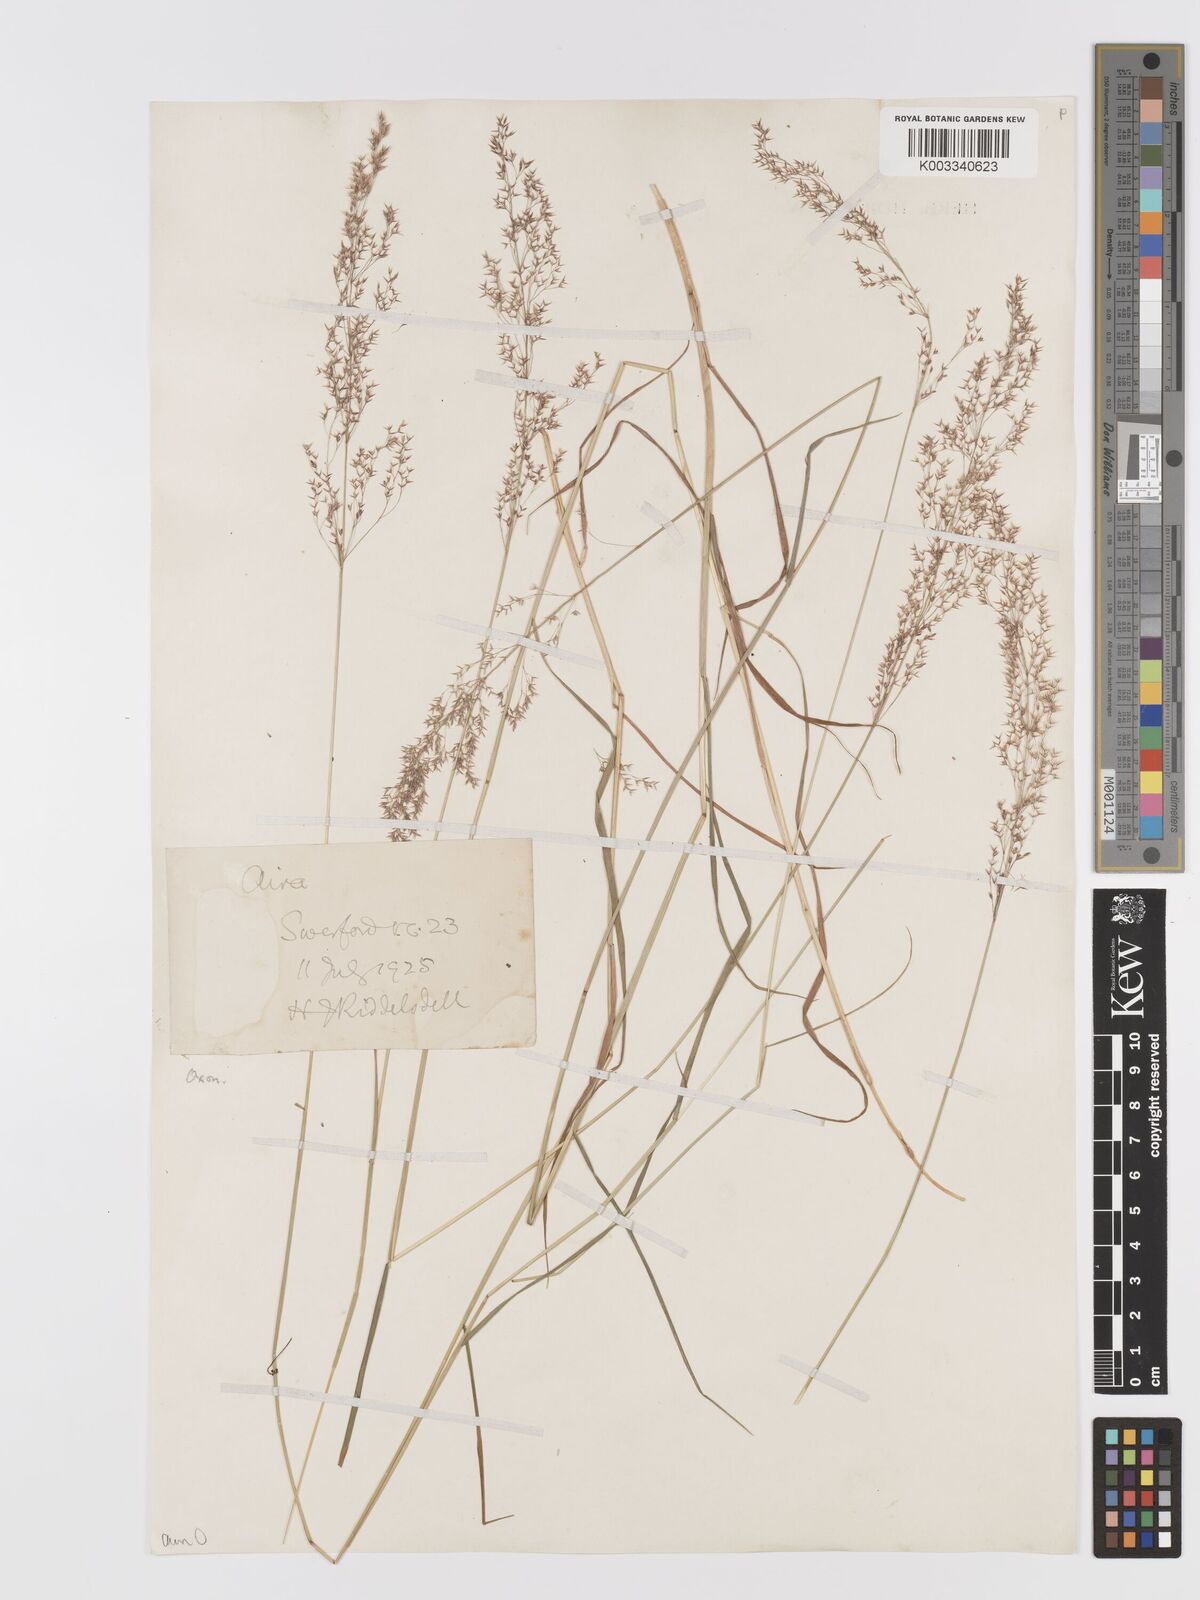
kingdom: Plantae
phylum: Tracheophyta
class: Liliopsida
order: Poales
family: Poaceae
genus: Agrostis
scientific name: Agrostis capillaris
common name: Colonial bentgrass
